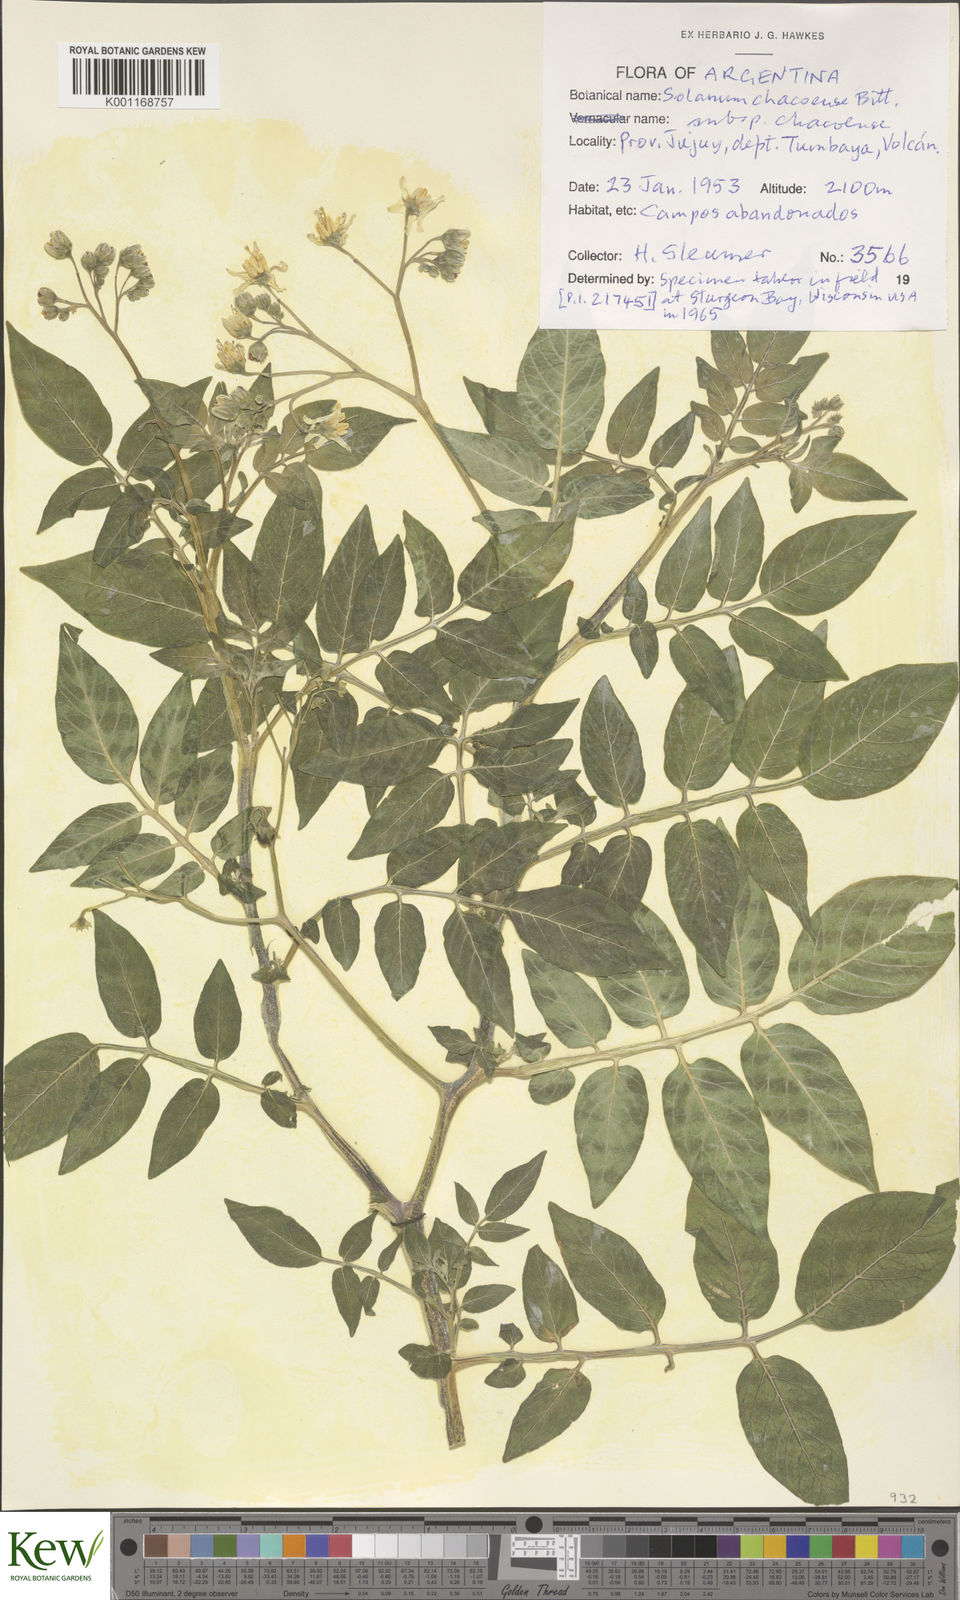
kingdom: Plantae
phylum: Tracheophyta
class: Magnoliopsida
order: Solanales
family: Solanaceae
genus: Solanum
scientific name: Solanum chacoense
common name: Chaco potato
